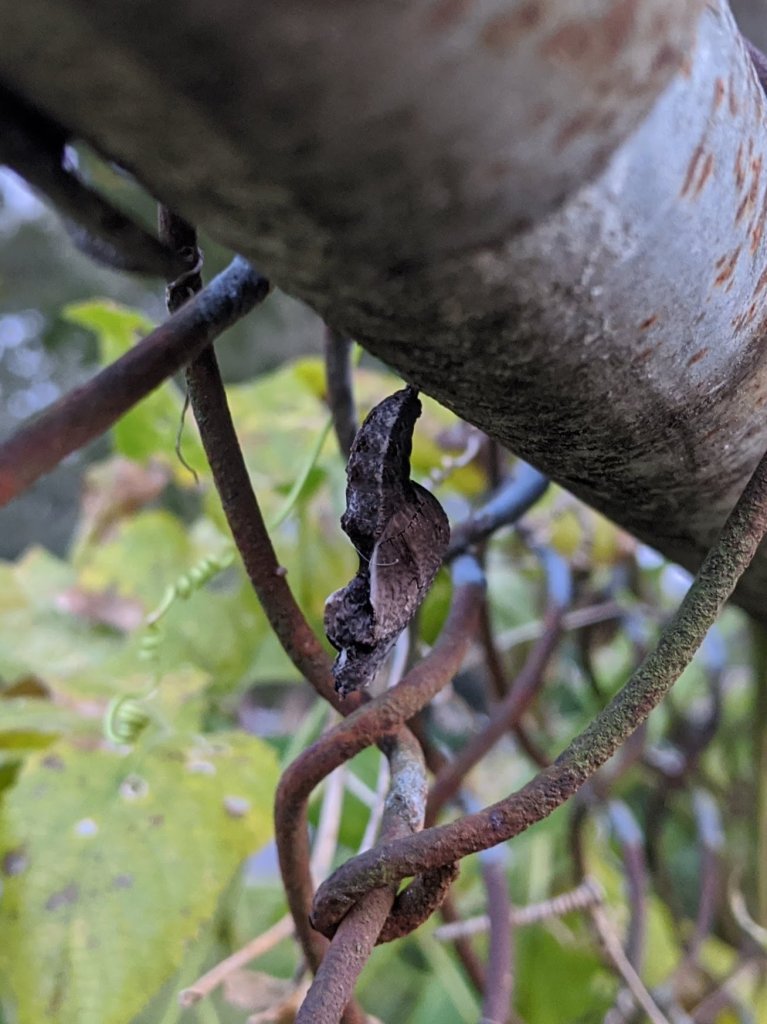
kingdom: Animalia
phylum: Arthropoda
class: Insecta
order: Lepidoptera
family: Nymphalidae
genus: Dione
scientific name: Dione vanillae
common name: Gulf Fritillary
